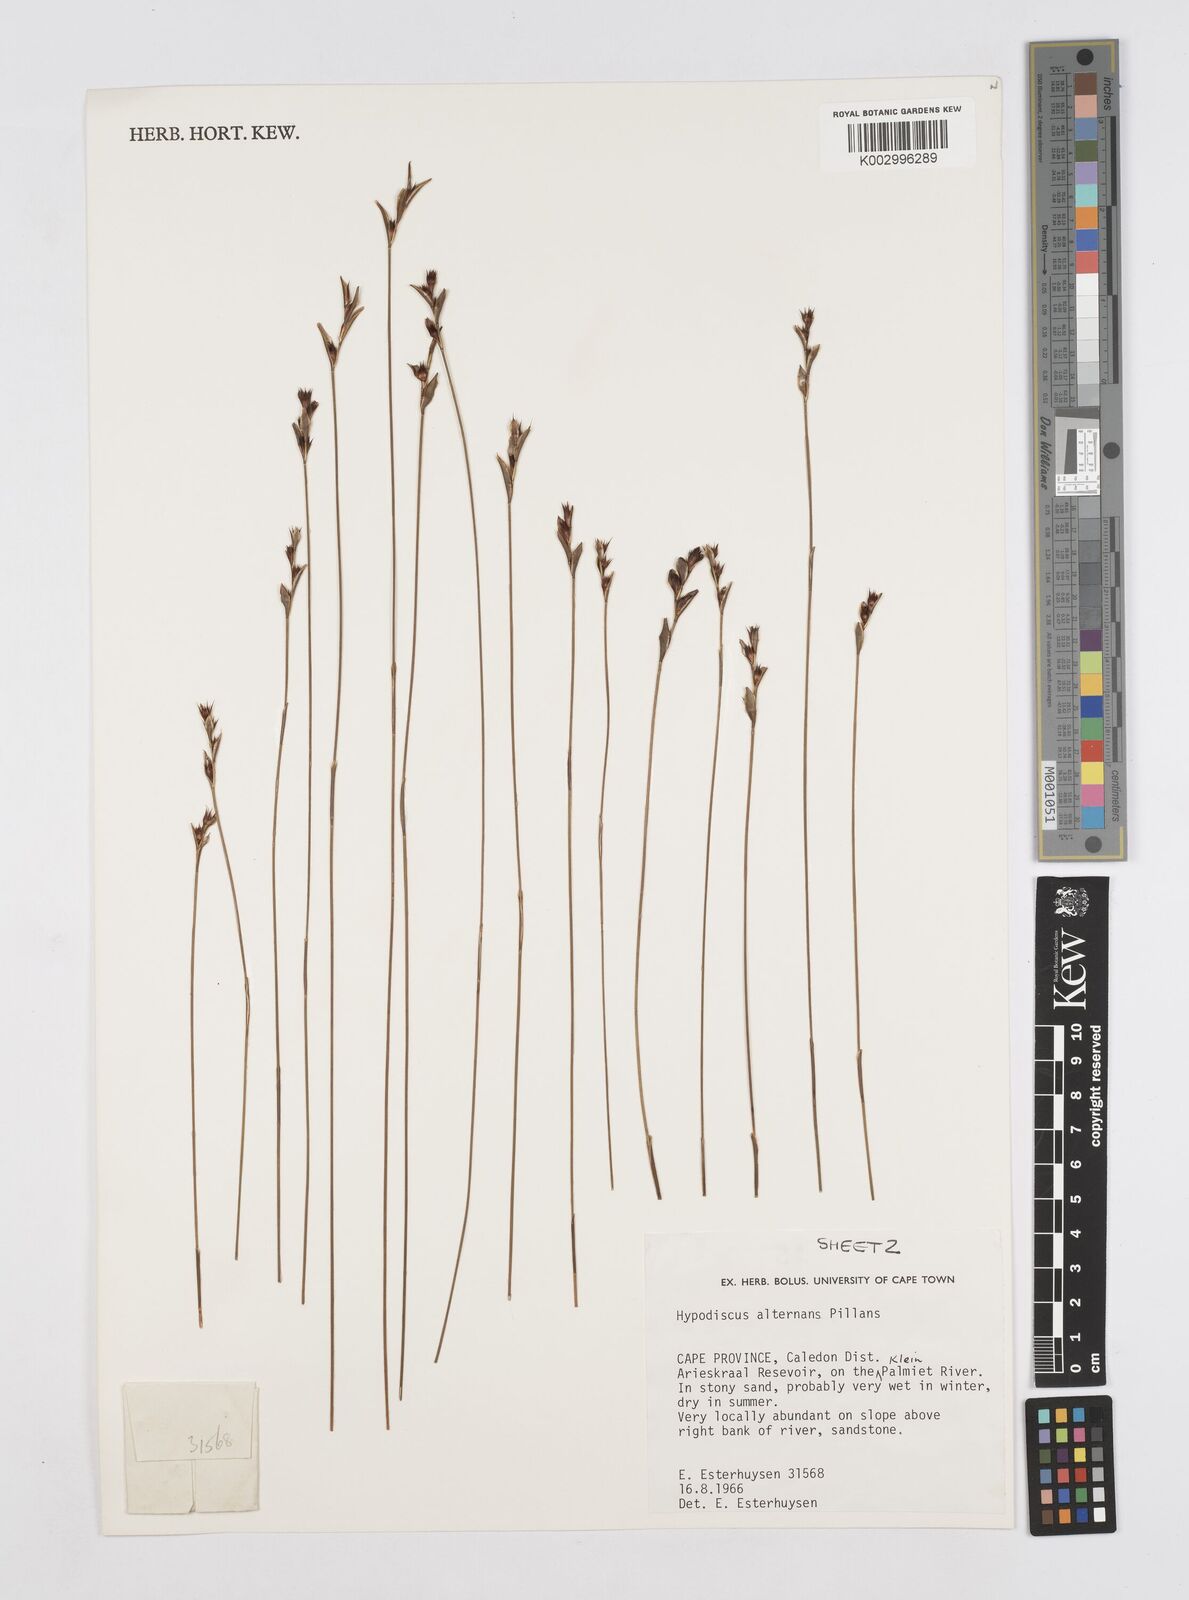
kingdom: Plantae
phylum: Tracheophyta
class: Liliopsida
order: Poales
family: Restionaceae
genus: Hypodiscus
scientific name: Hypodiscus alternans
